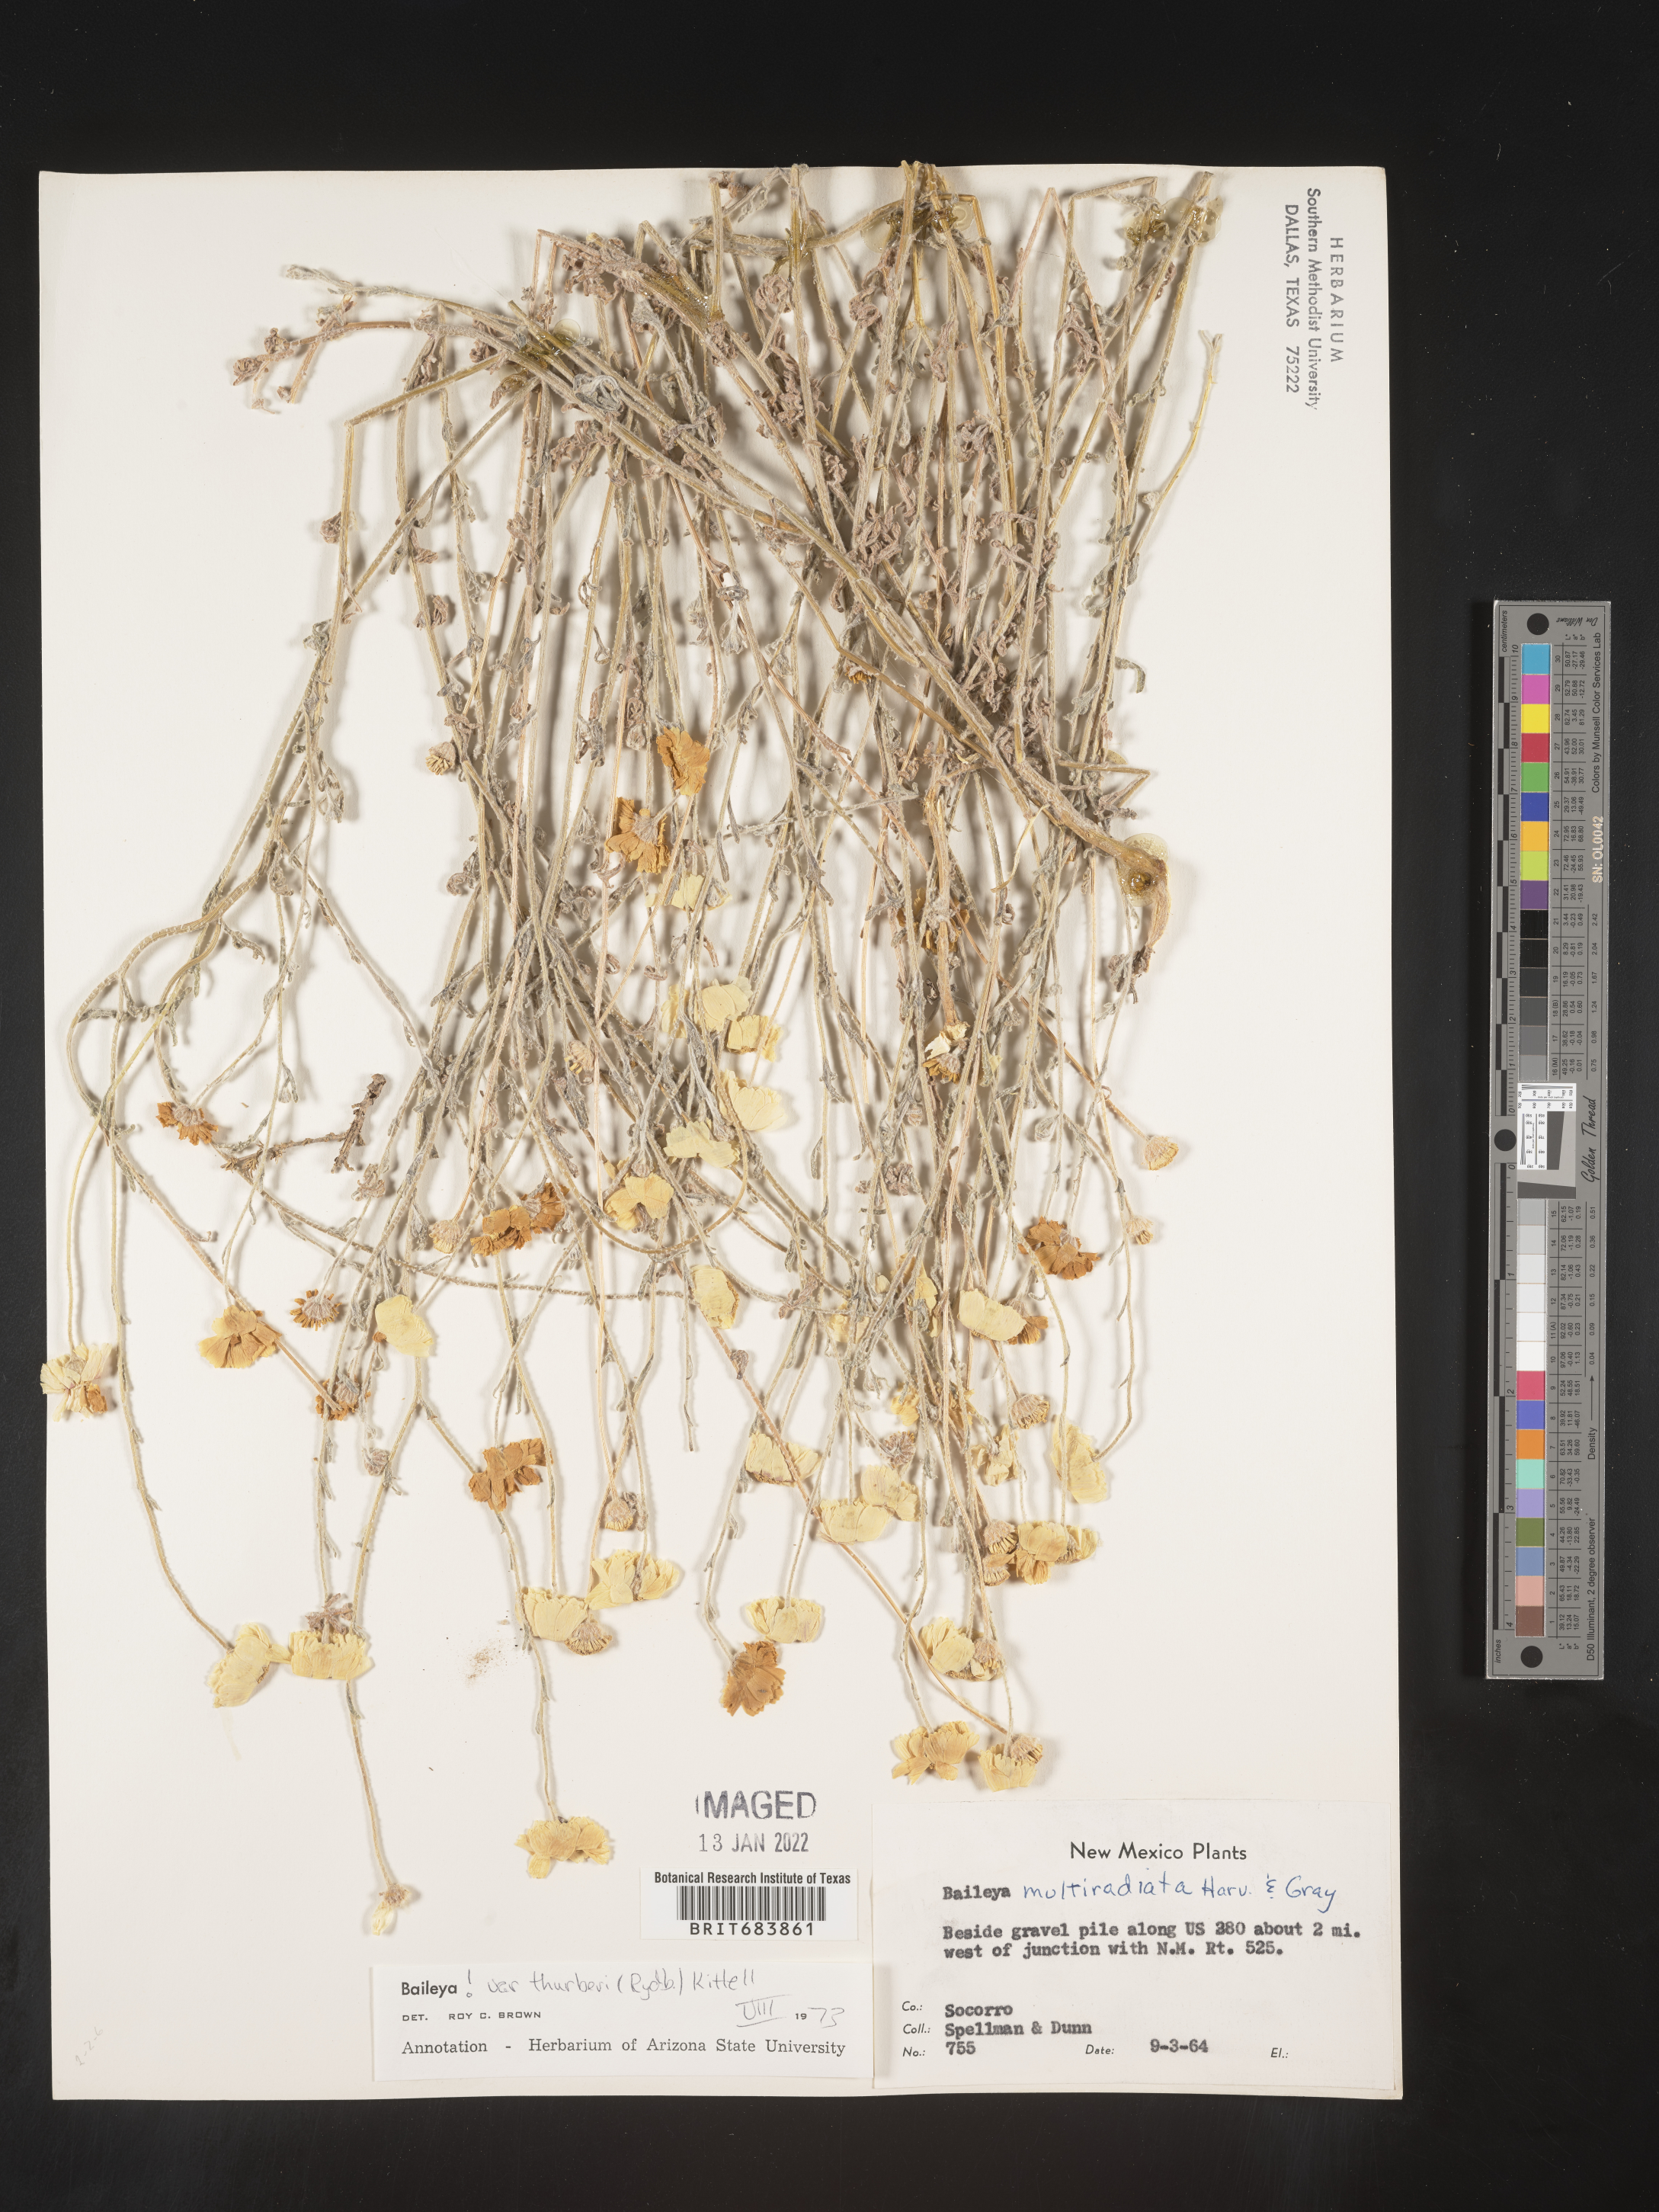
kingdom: Plantae
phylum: Tracheophyta
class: Magnoliopsida
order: Asterales
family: Asteraceae
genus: Baileya
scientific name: Baileya multiradiata
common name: Desert-marigold
